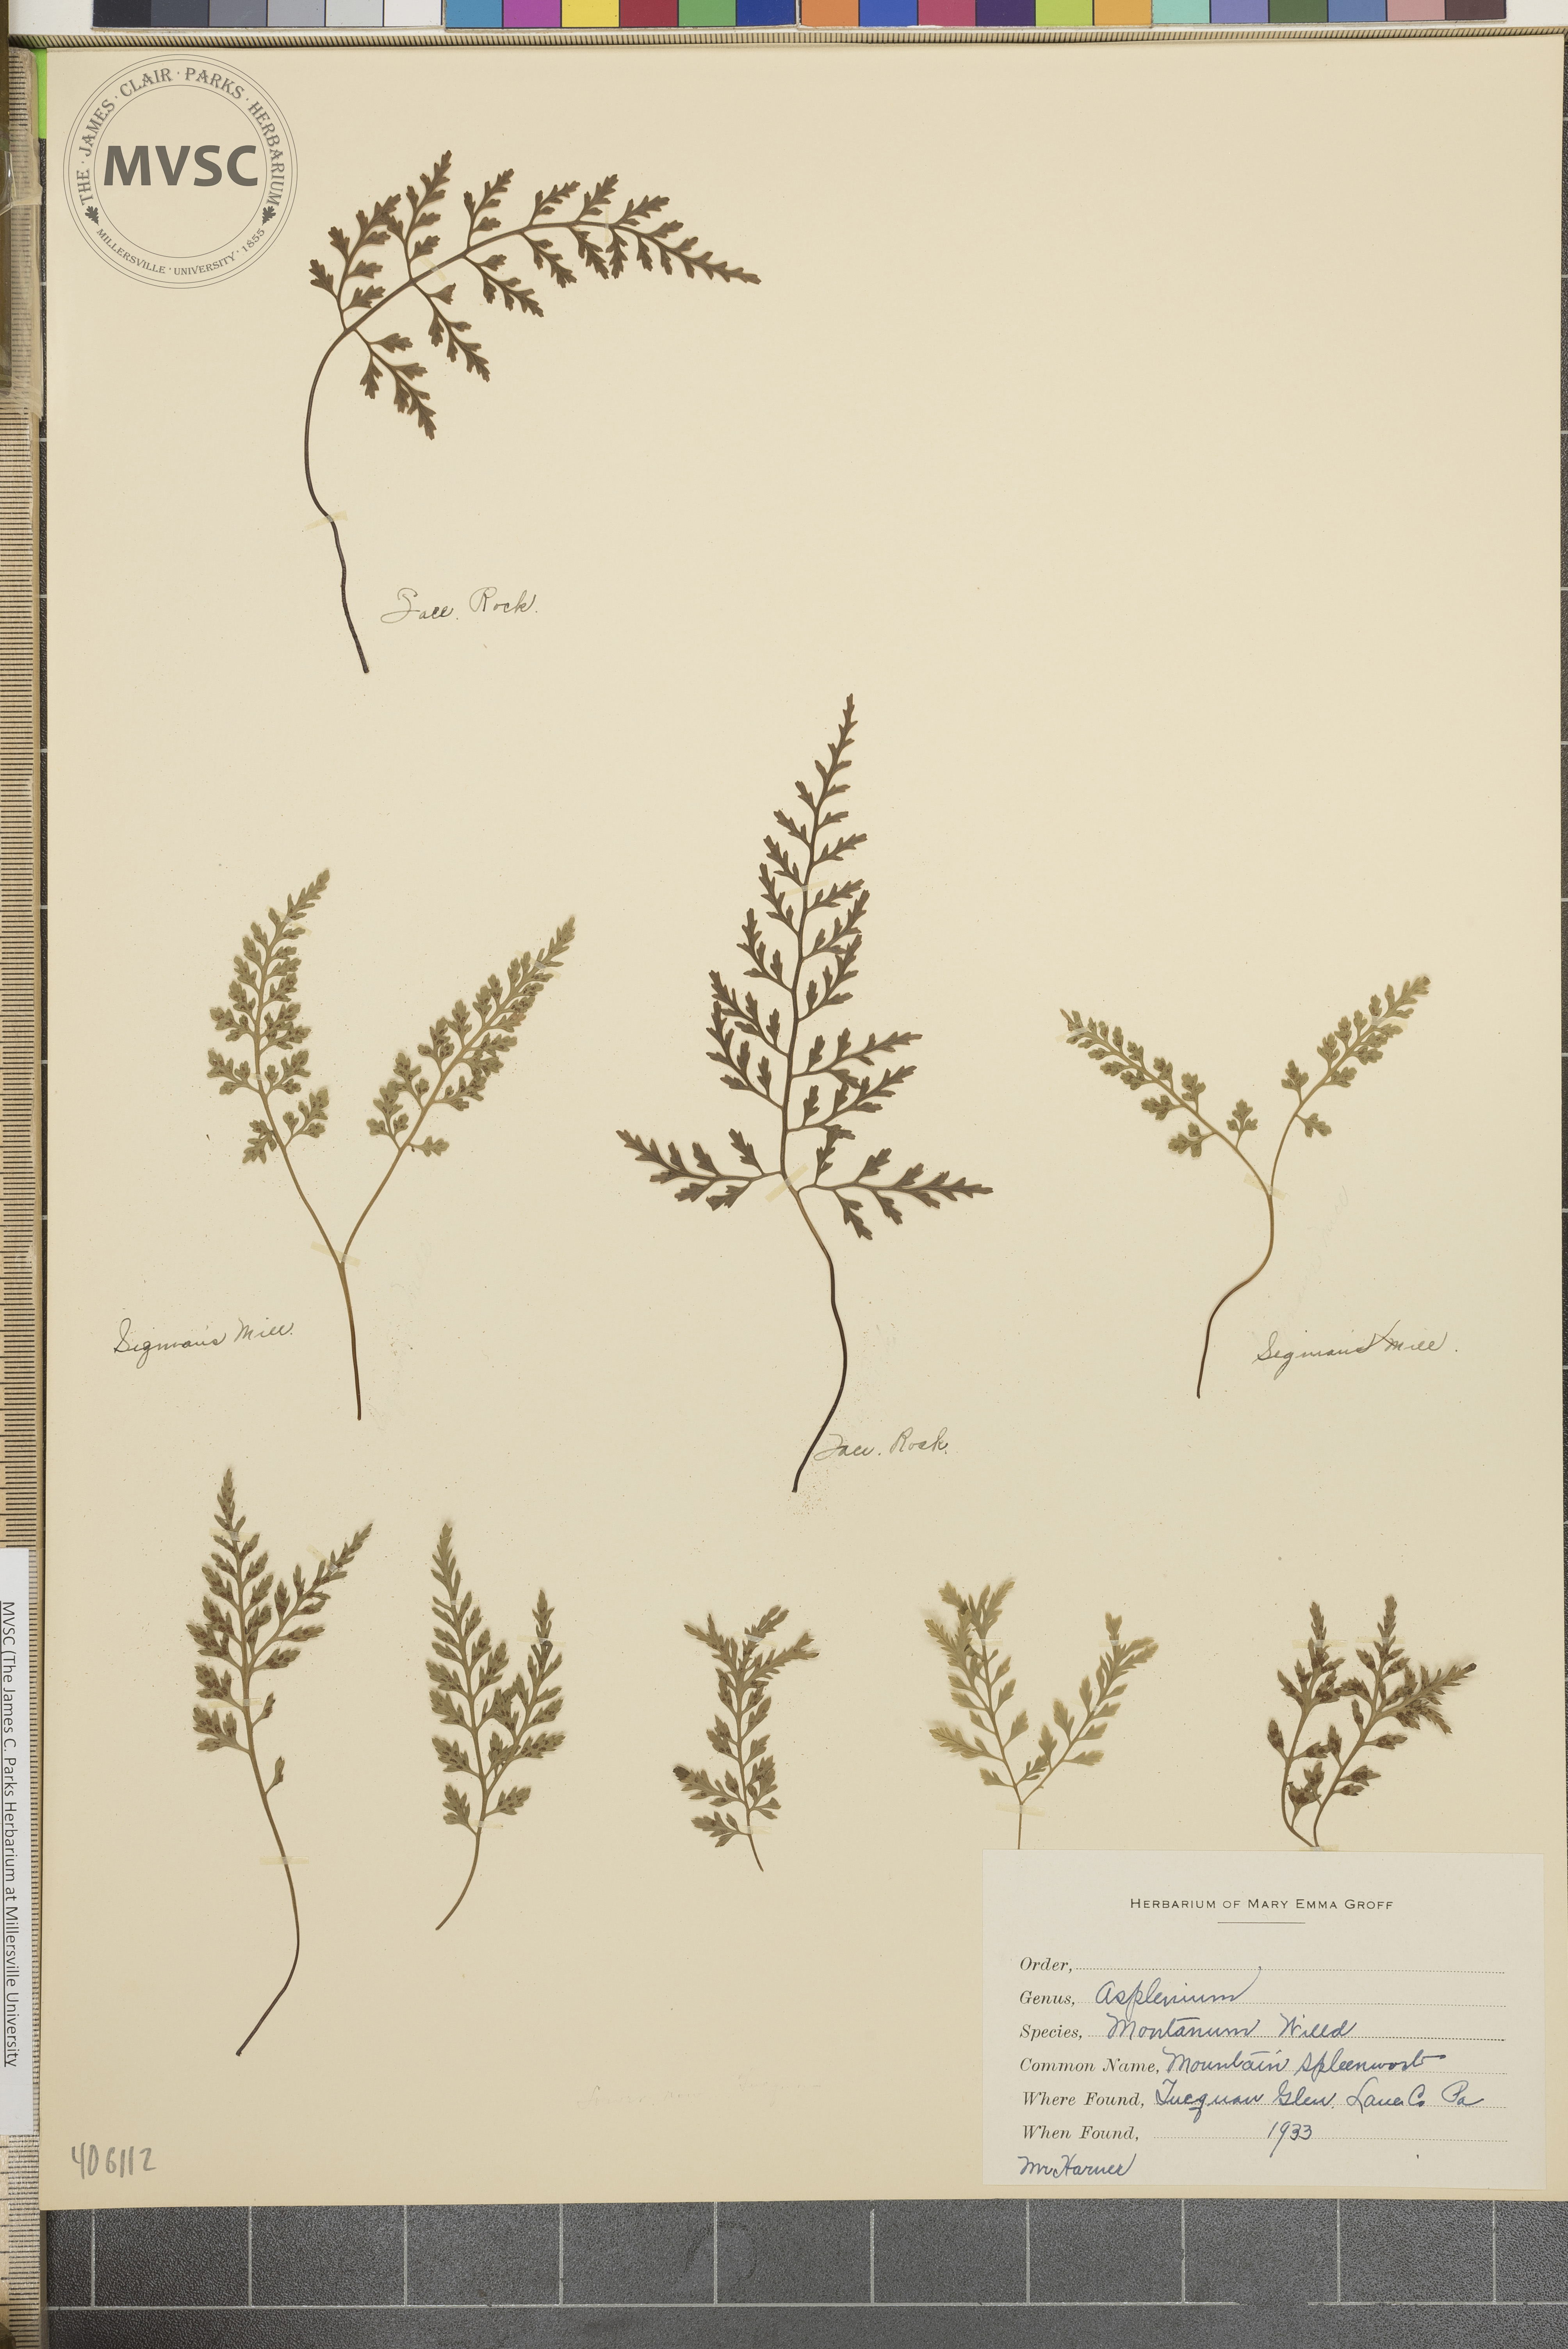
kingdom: Plantae
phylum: Tracheophyta
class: Polypodiopsida
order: Polypodiales
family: Aspleniaceae
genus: Asplenium
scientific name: Asplenium montanum
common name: Mountain spleenwort
